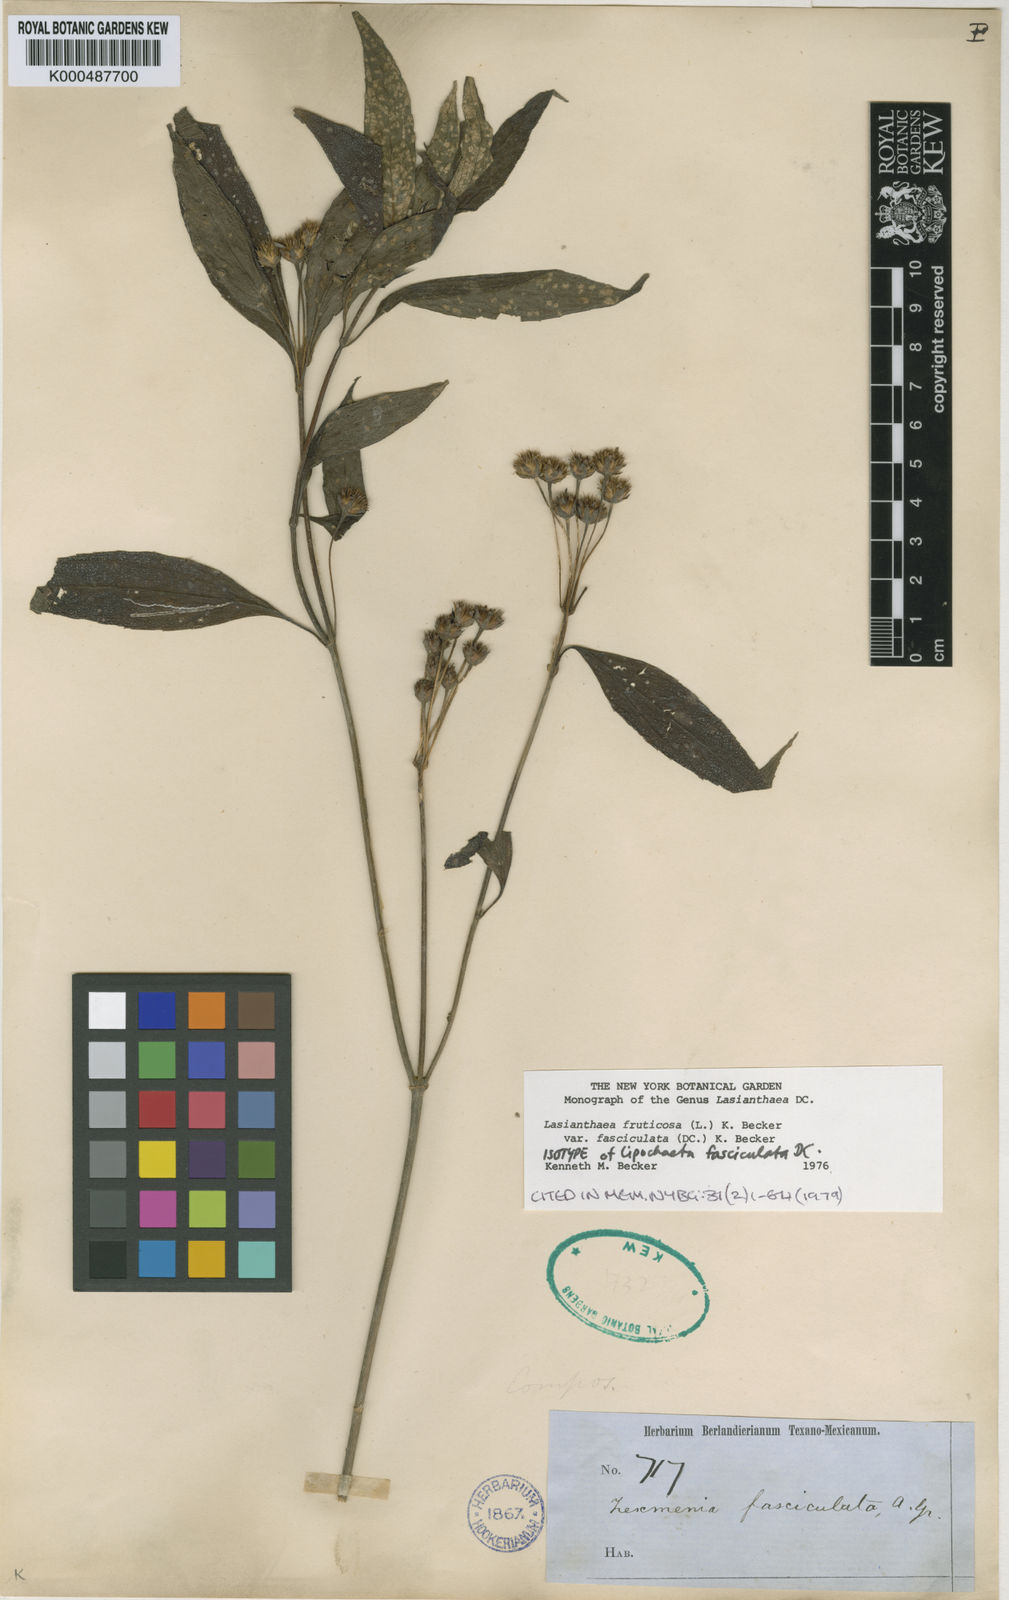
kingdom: Plantae
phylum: Tracheophyta
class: Magnoliopsida
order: Asterales
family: Asteraceae
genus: Lasianthaea
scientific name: Lasianthaea fruticosa
